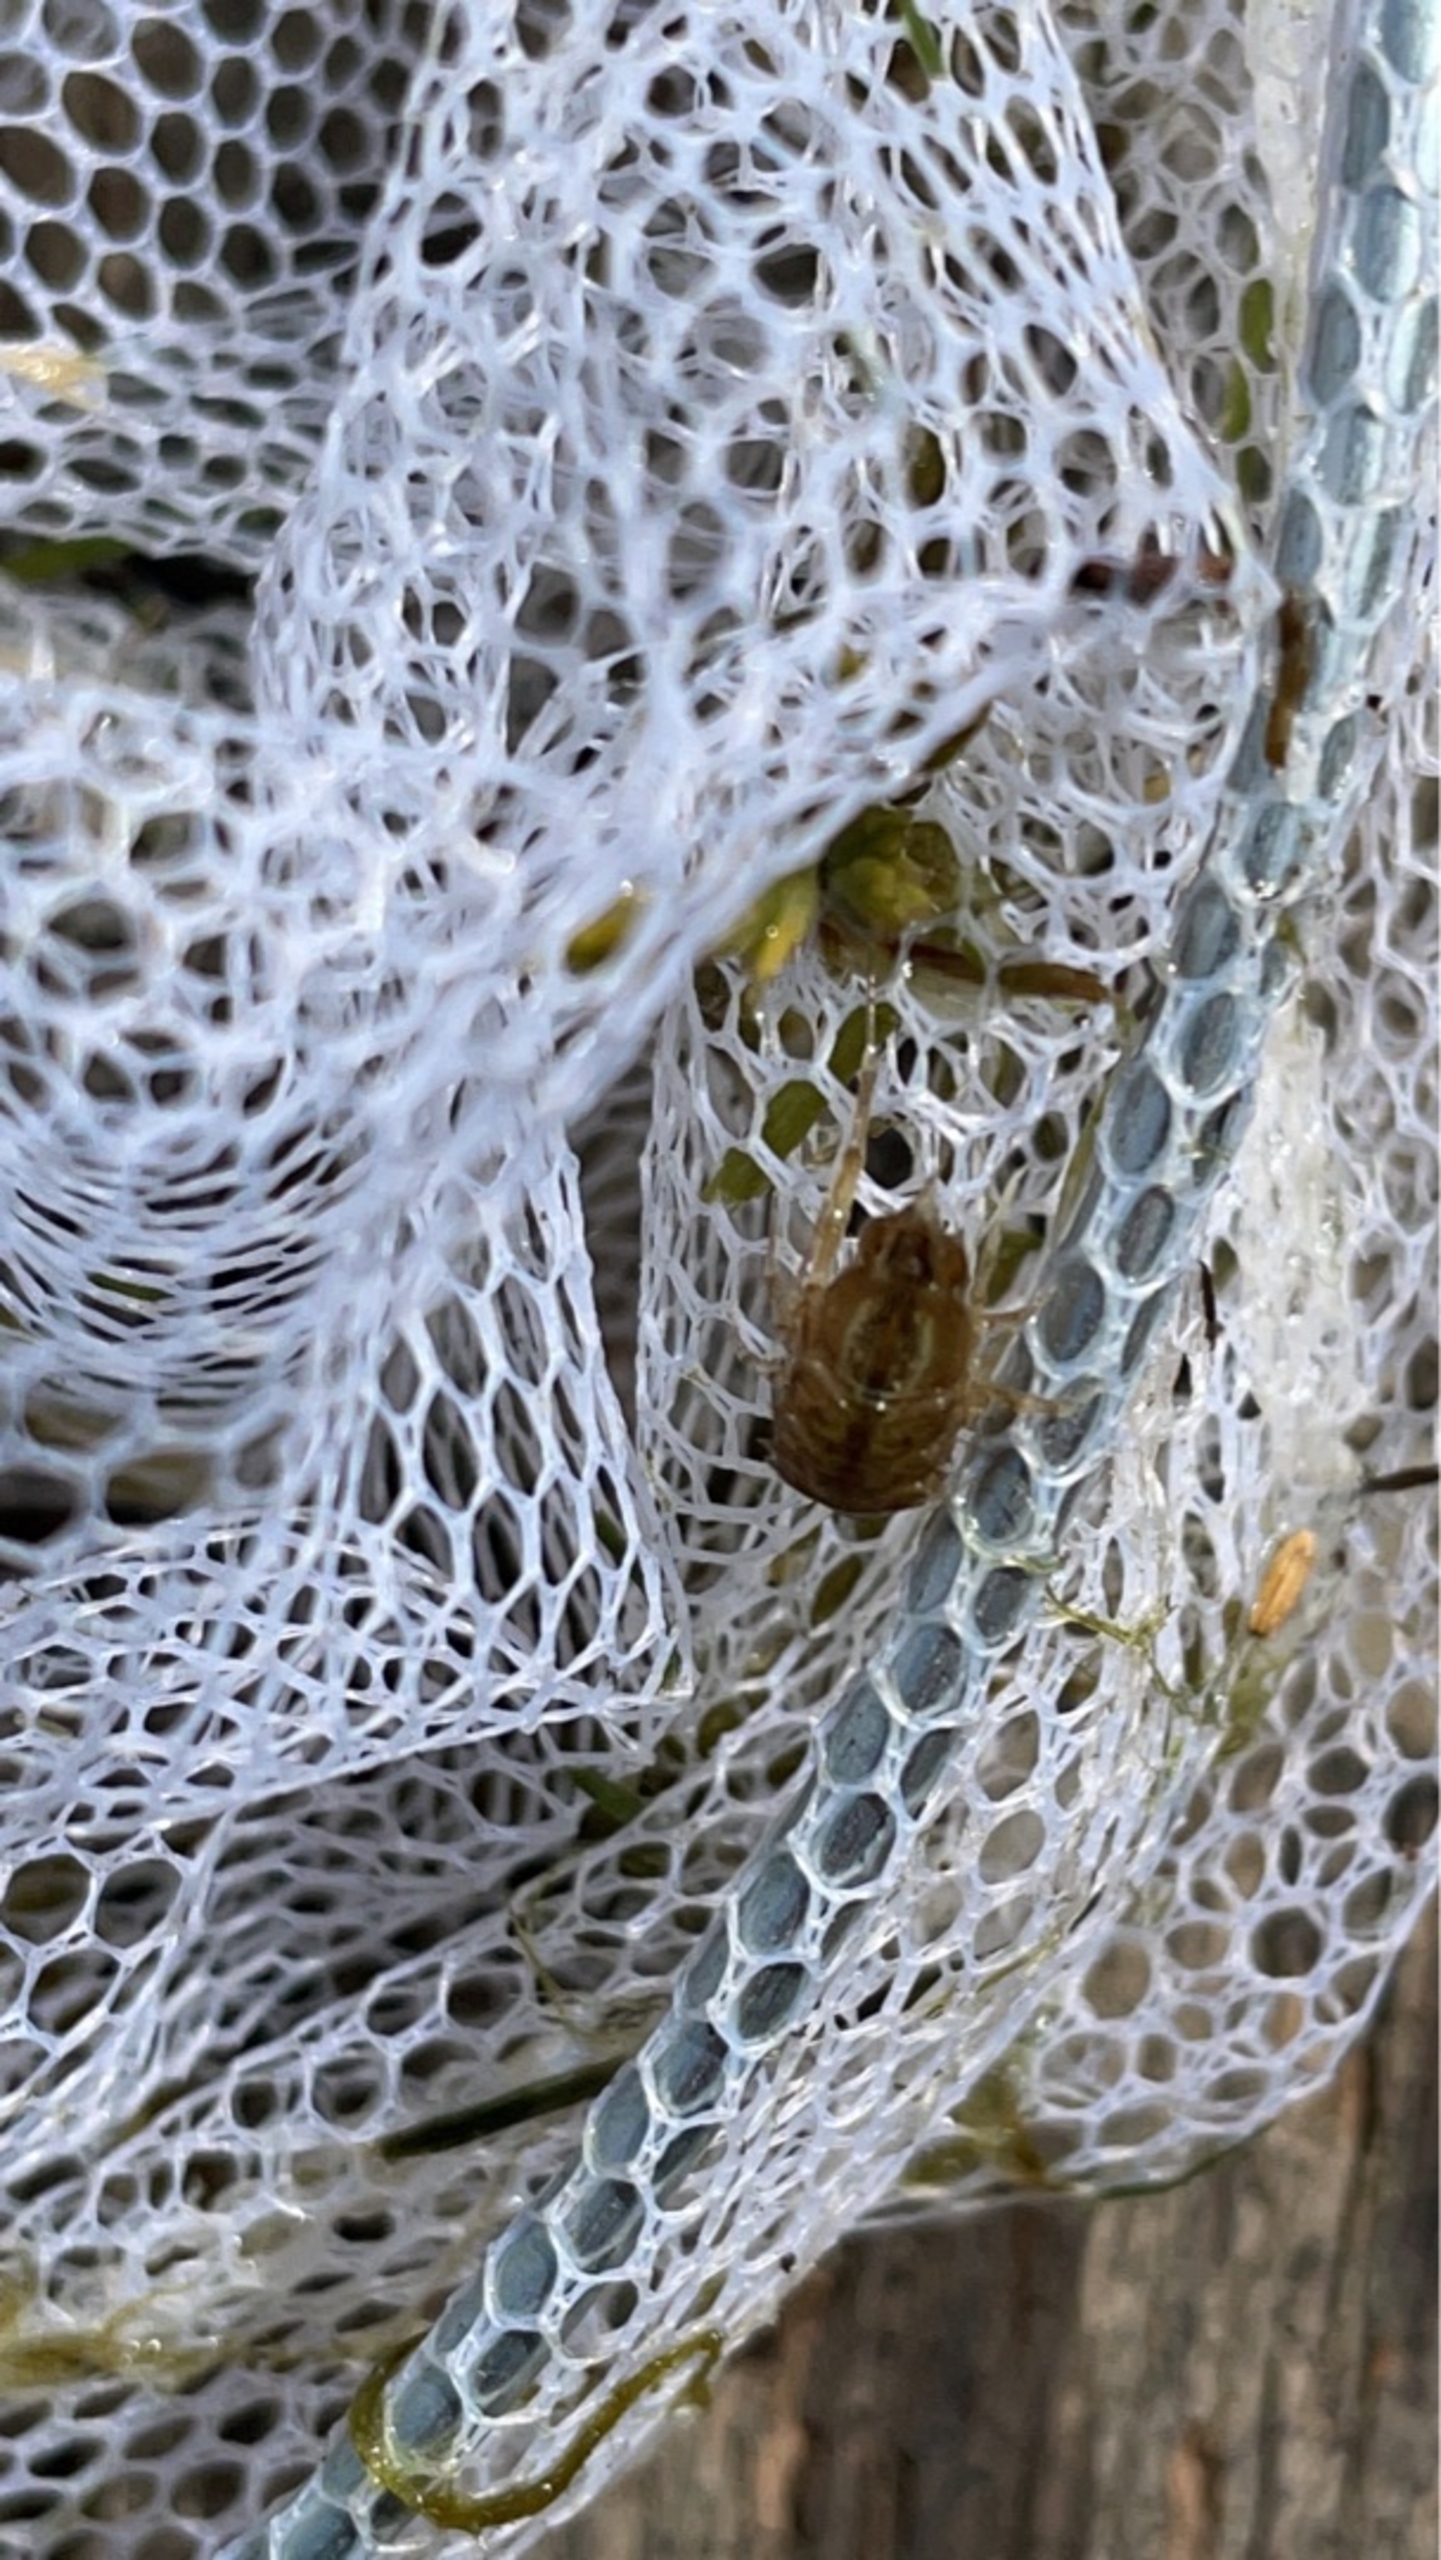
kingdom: Animalia
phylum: Arthropoda
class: Malacostraca
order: Isopoda
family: Asellidae
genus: Asellus
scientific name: Asellus aquaticus
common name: Vandbænkebider
